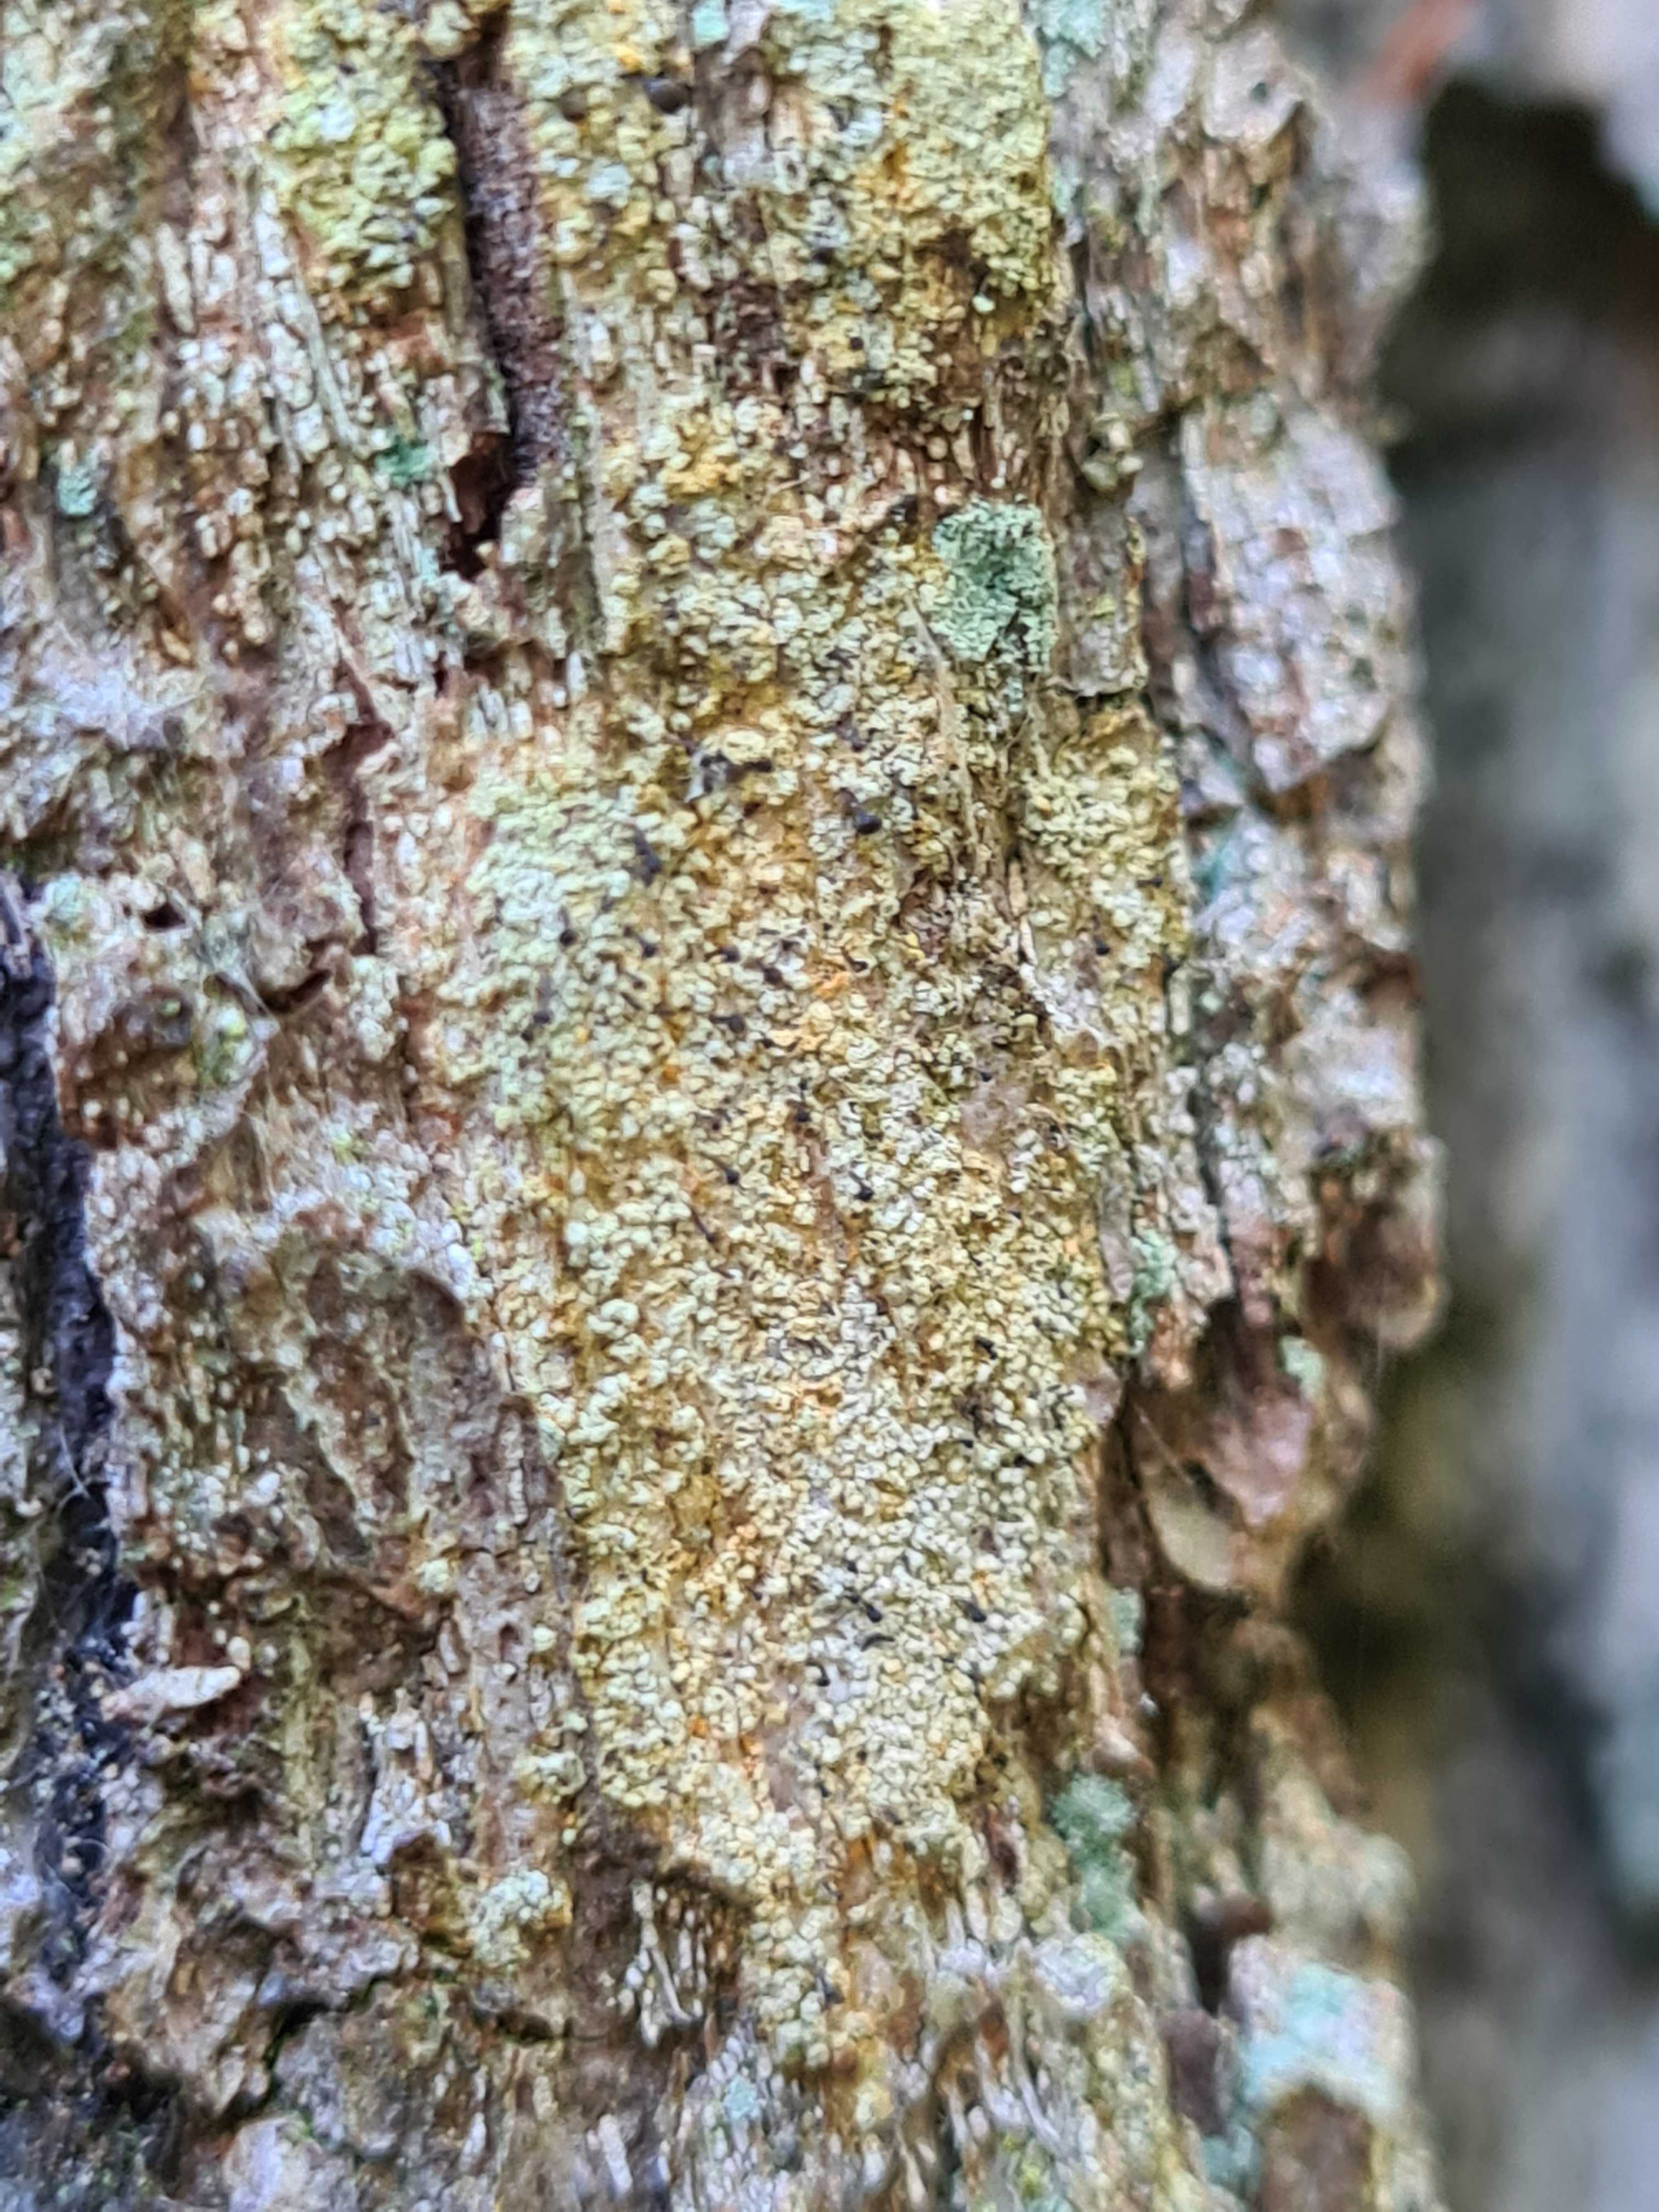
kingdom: Fungi
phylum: Ascomycota
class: Coniocybomycetes
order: Coniocybales
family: Coniocybaceae
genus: Chaenotheca
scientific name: Chaenotheca ferruginea
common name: rustbrun knappenålslav
